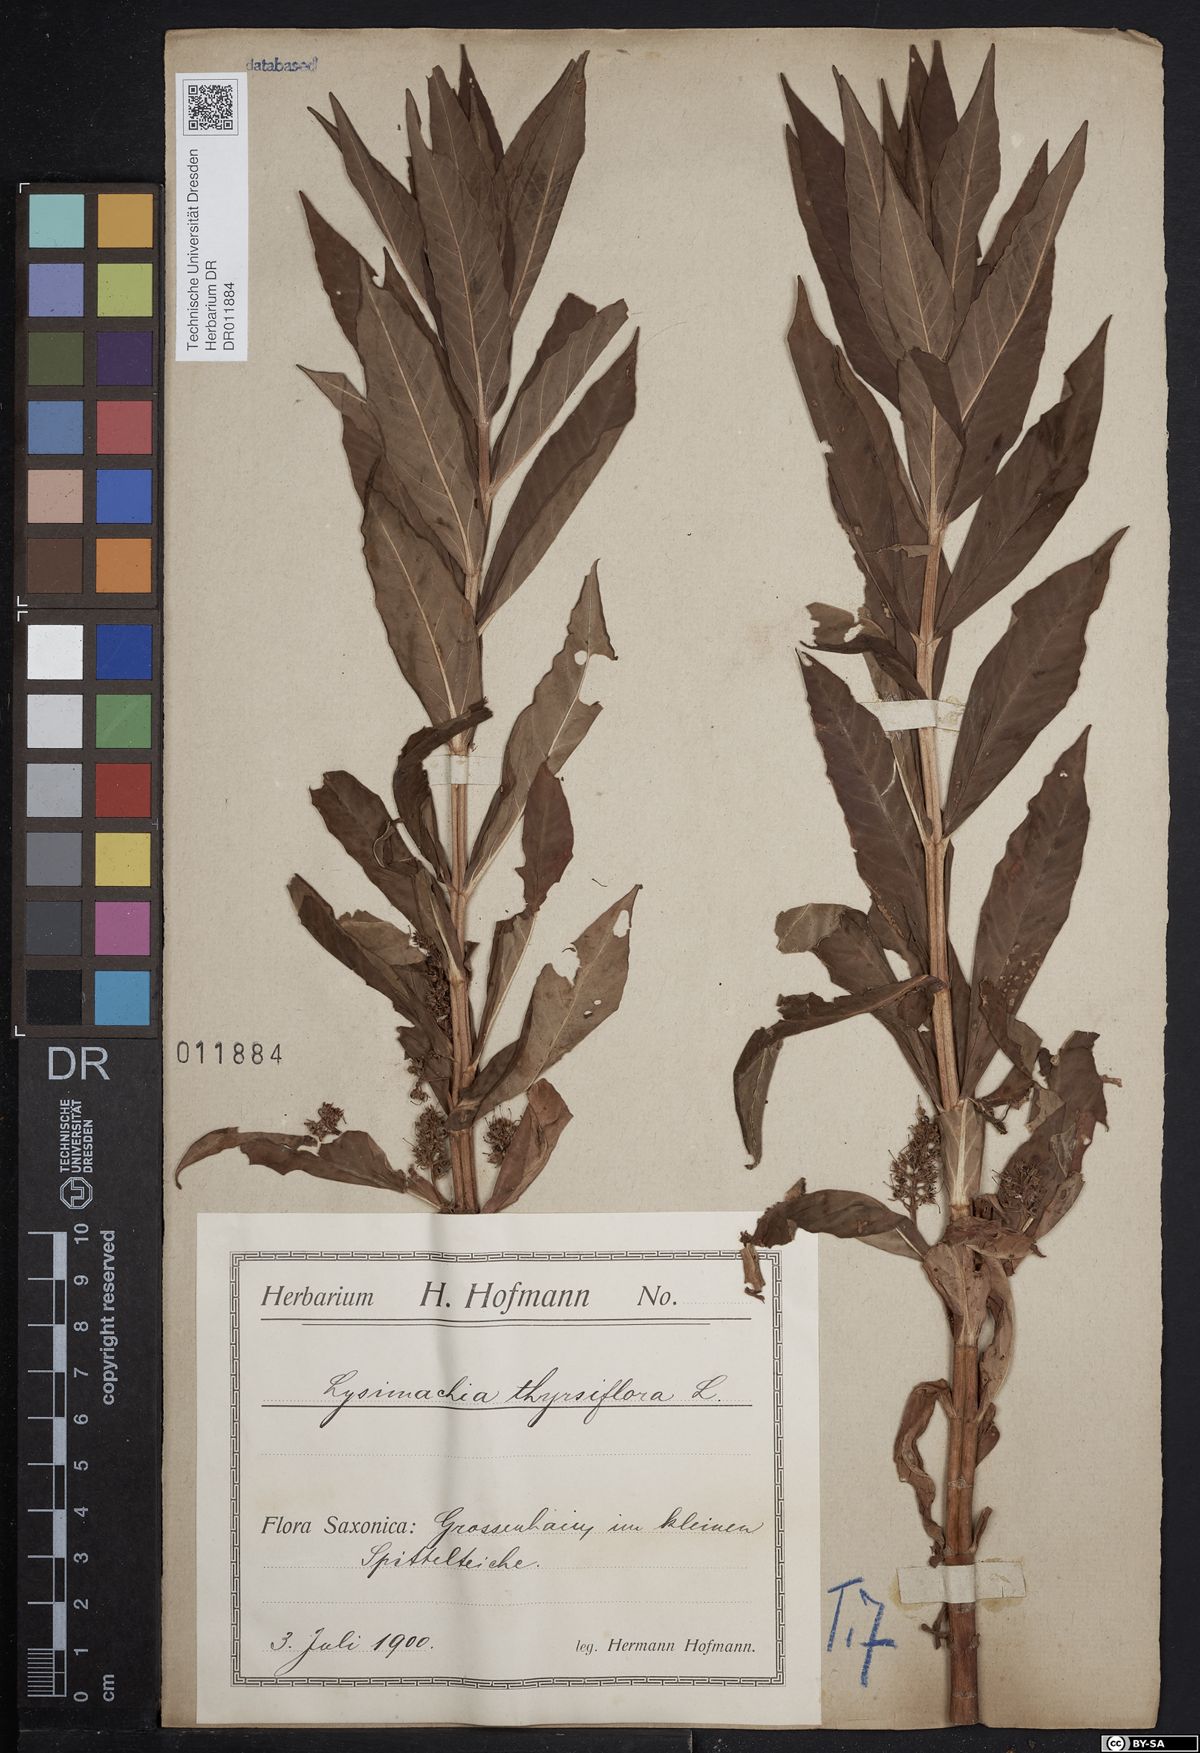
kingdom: Plantae
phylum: Tracheophyta
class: Magnoliopsida
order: Ericales
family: Primulaceae
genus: Lysimachia
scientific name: Lysimachia thyrsiflora
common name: Tufted loosestrife
